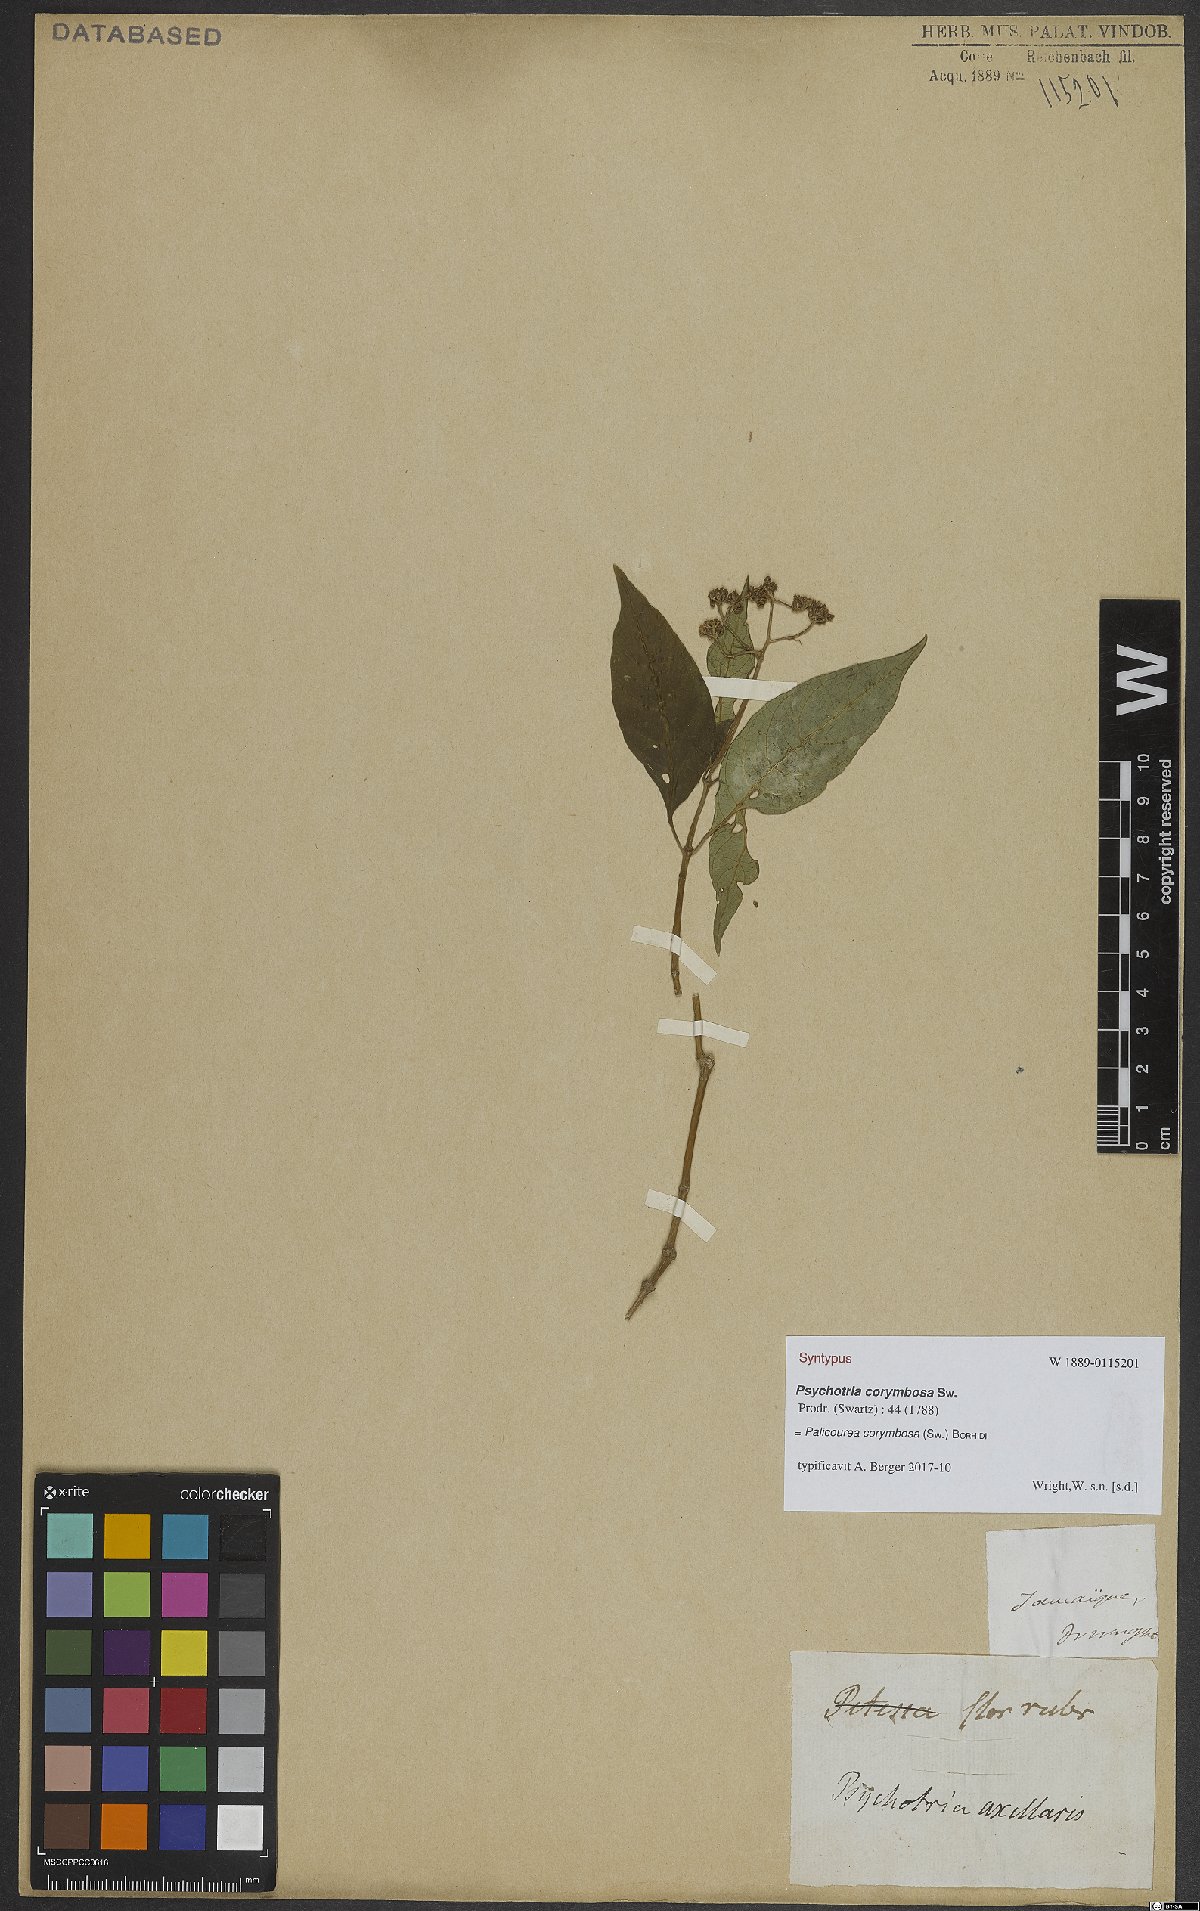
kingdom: Plantae
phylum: Tracheophyta
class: Magnoliopsida
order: Gentianales
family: Rubiaceae
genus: Palicourea
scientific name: Palicourea corymbosa
